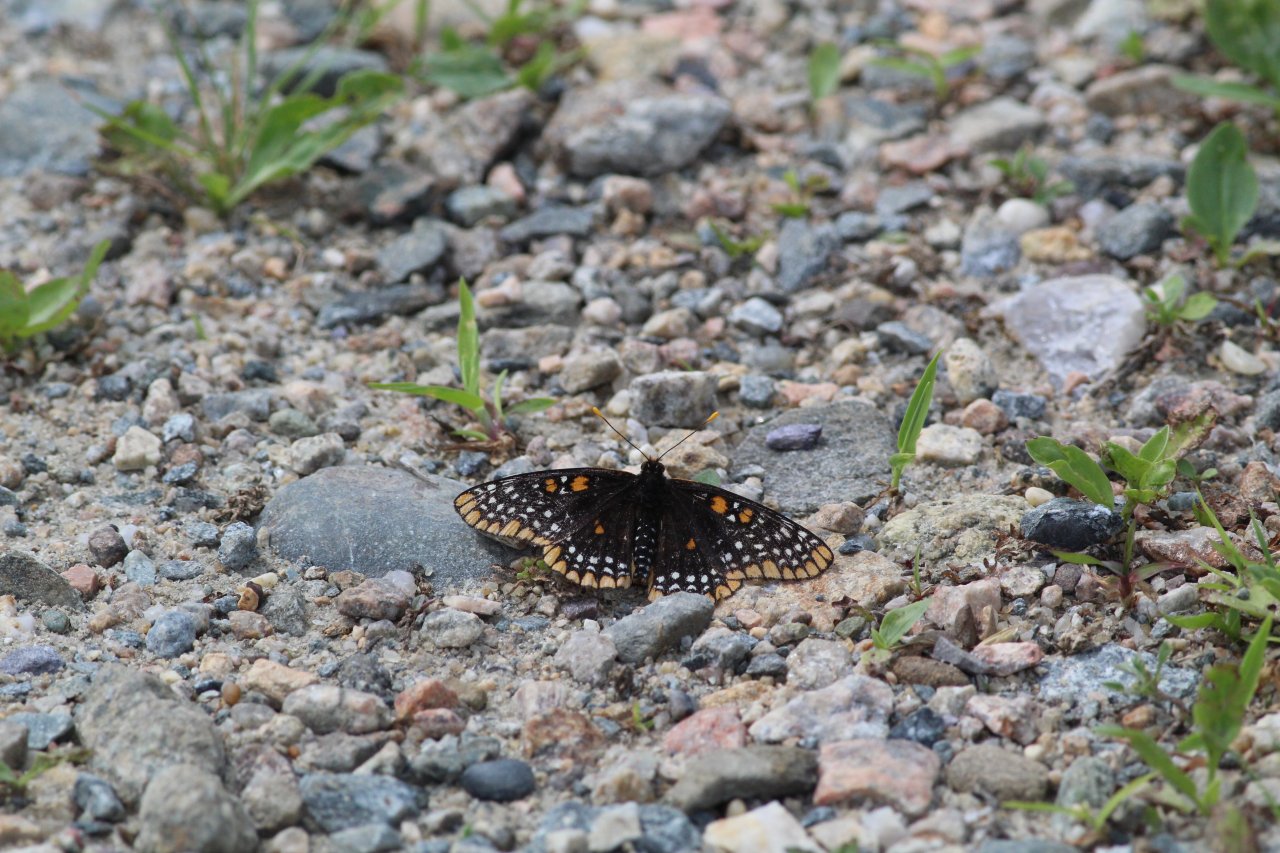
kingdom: Animalia
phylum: Arthropoda
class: Insecta
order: Lepidoptera
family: Nymphalidae
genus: Euphydryas
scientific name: Euphydryas phaeton
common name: Baltimore Checkerspot
